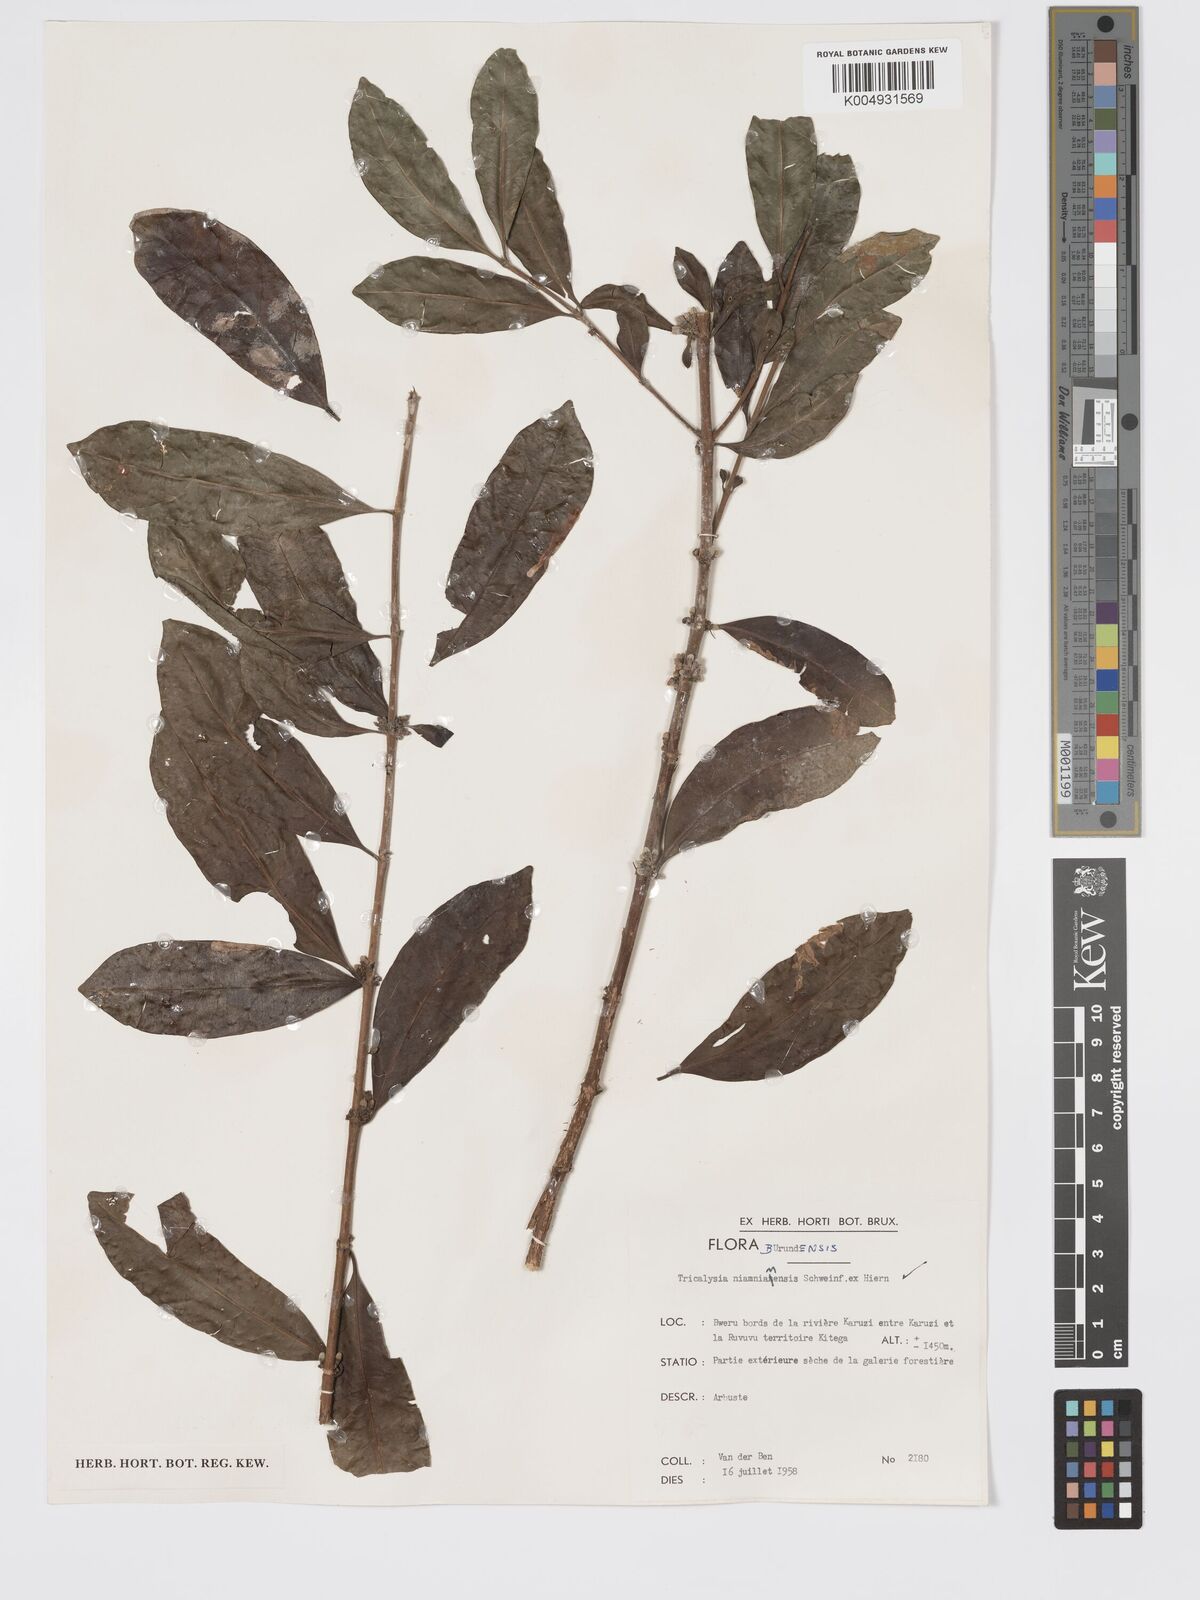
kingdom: Plantae
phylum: Tracheophyta
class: Magnoliopsida
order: Gentianales
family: Rubiaceae
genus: Tricalysia
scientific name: Tricalysia kivuensis
